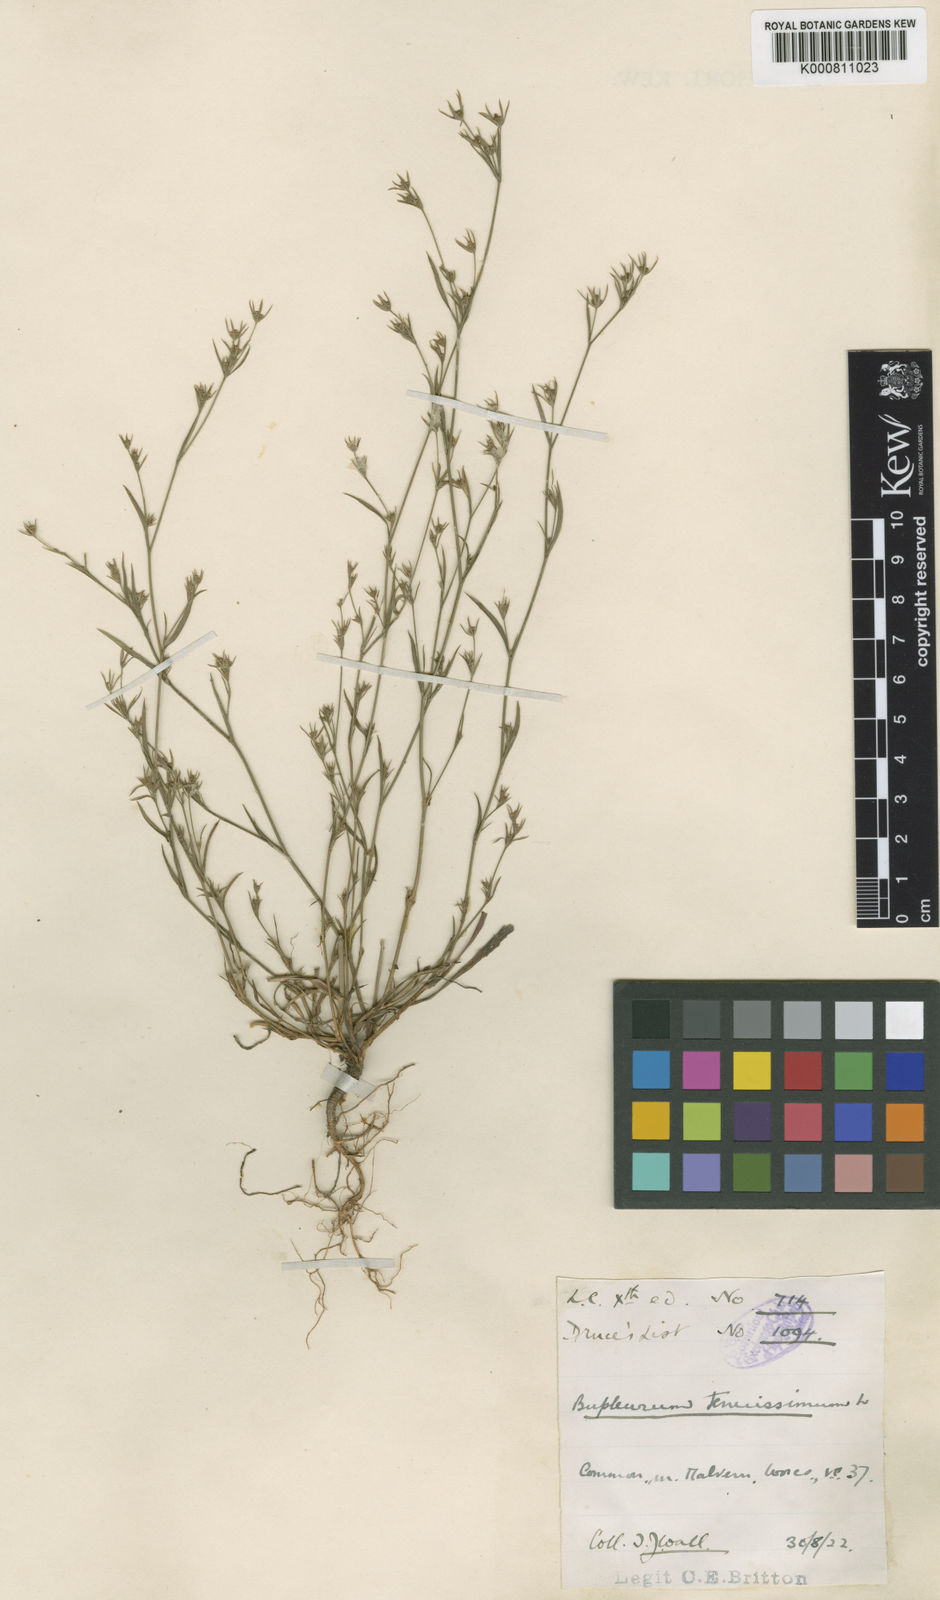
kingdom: Plantae
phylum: Tracheophyta
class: Magnoliopsida
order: Apiales
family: Apiaceae
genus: Bupleurum
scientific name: Bupleurum tenuissimum
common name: Slender hare's-ear
